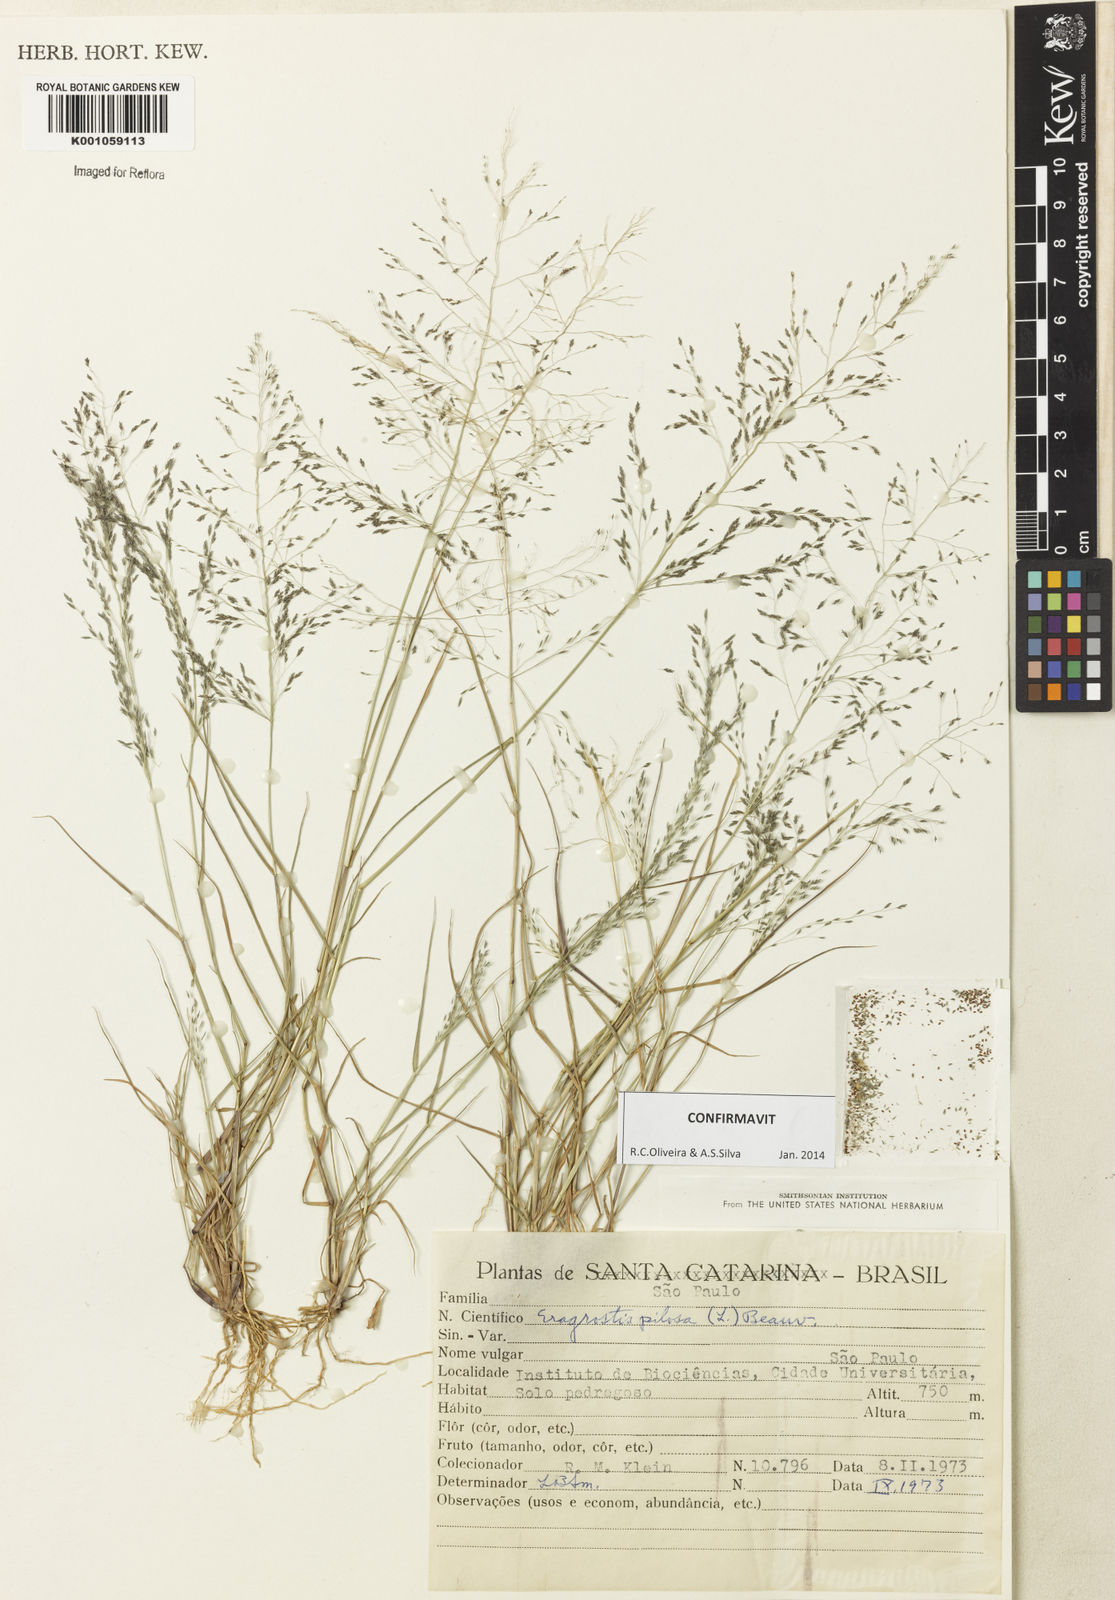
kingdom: Plantae
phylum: Tracheophyta
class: Liliopsida
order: Poales
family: Poaceae
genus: Eragrostis
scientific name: Eragrostis pilosa
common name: Indian lovegrass
